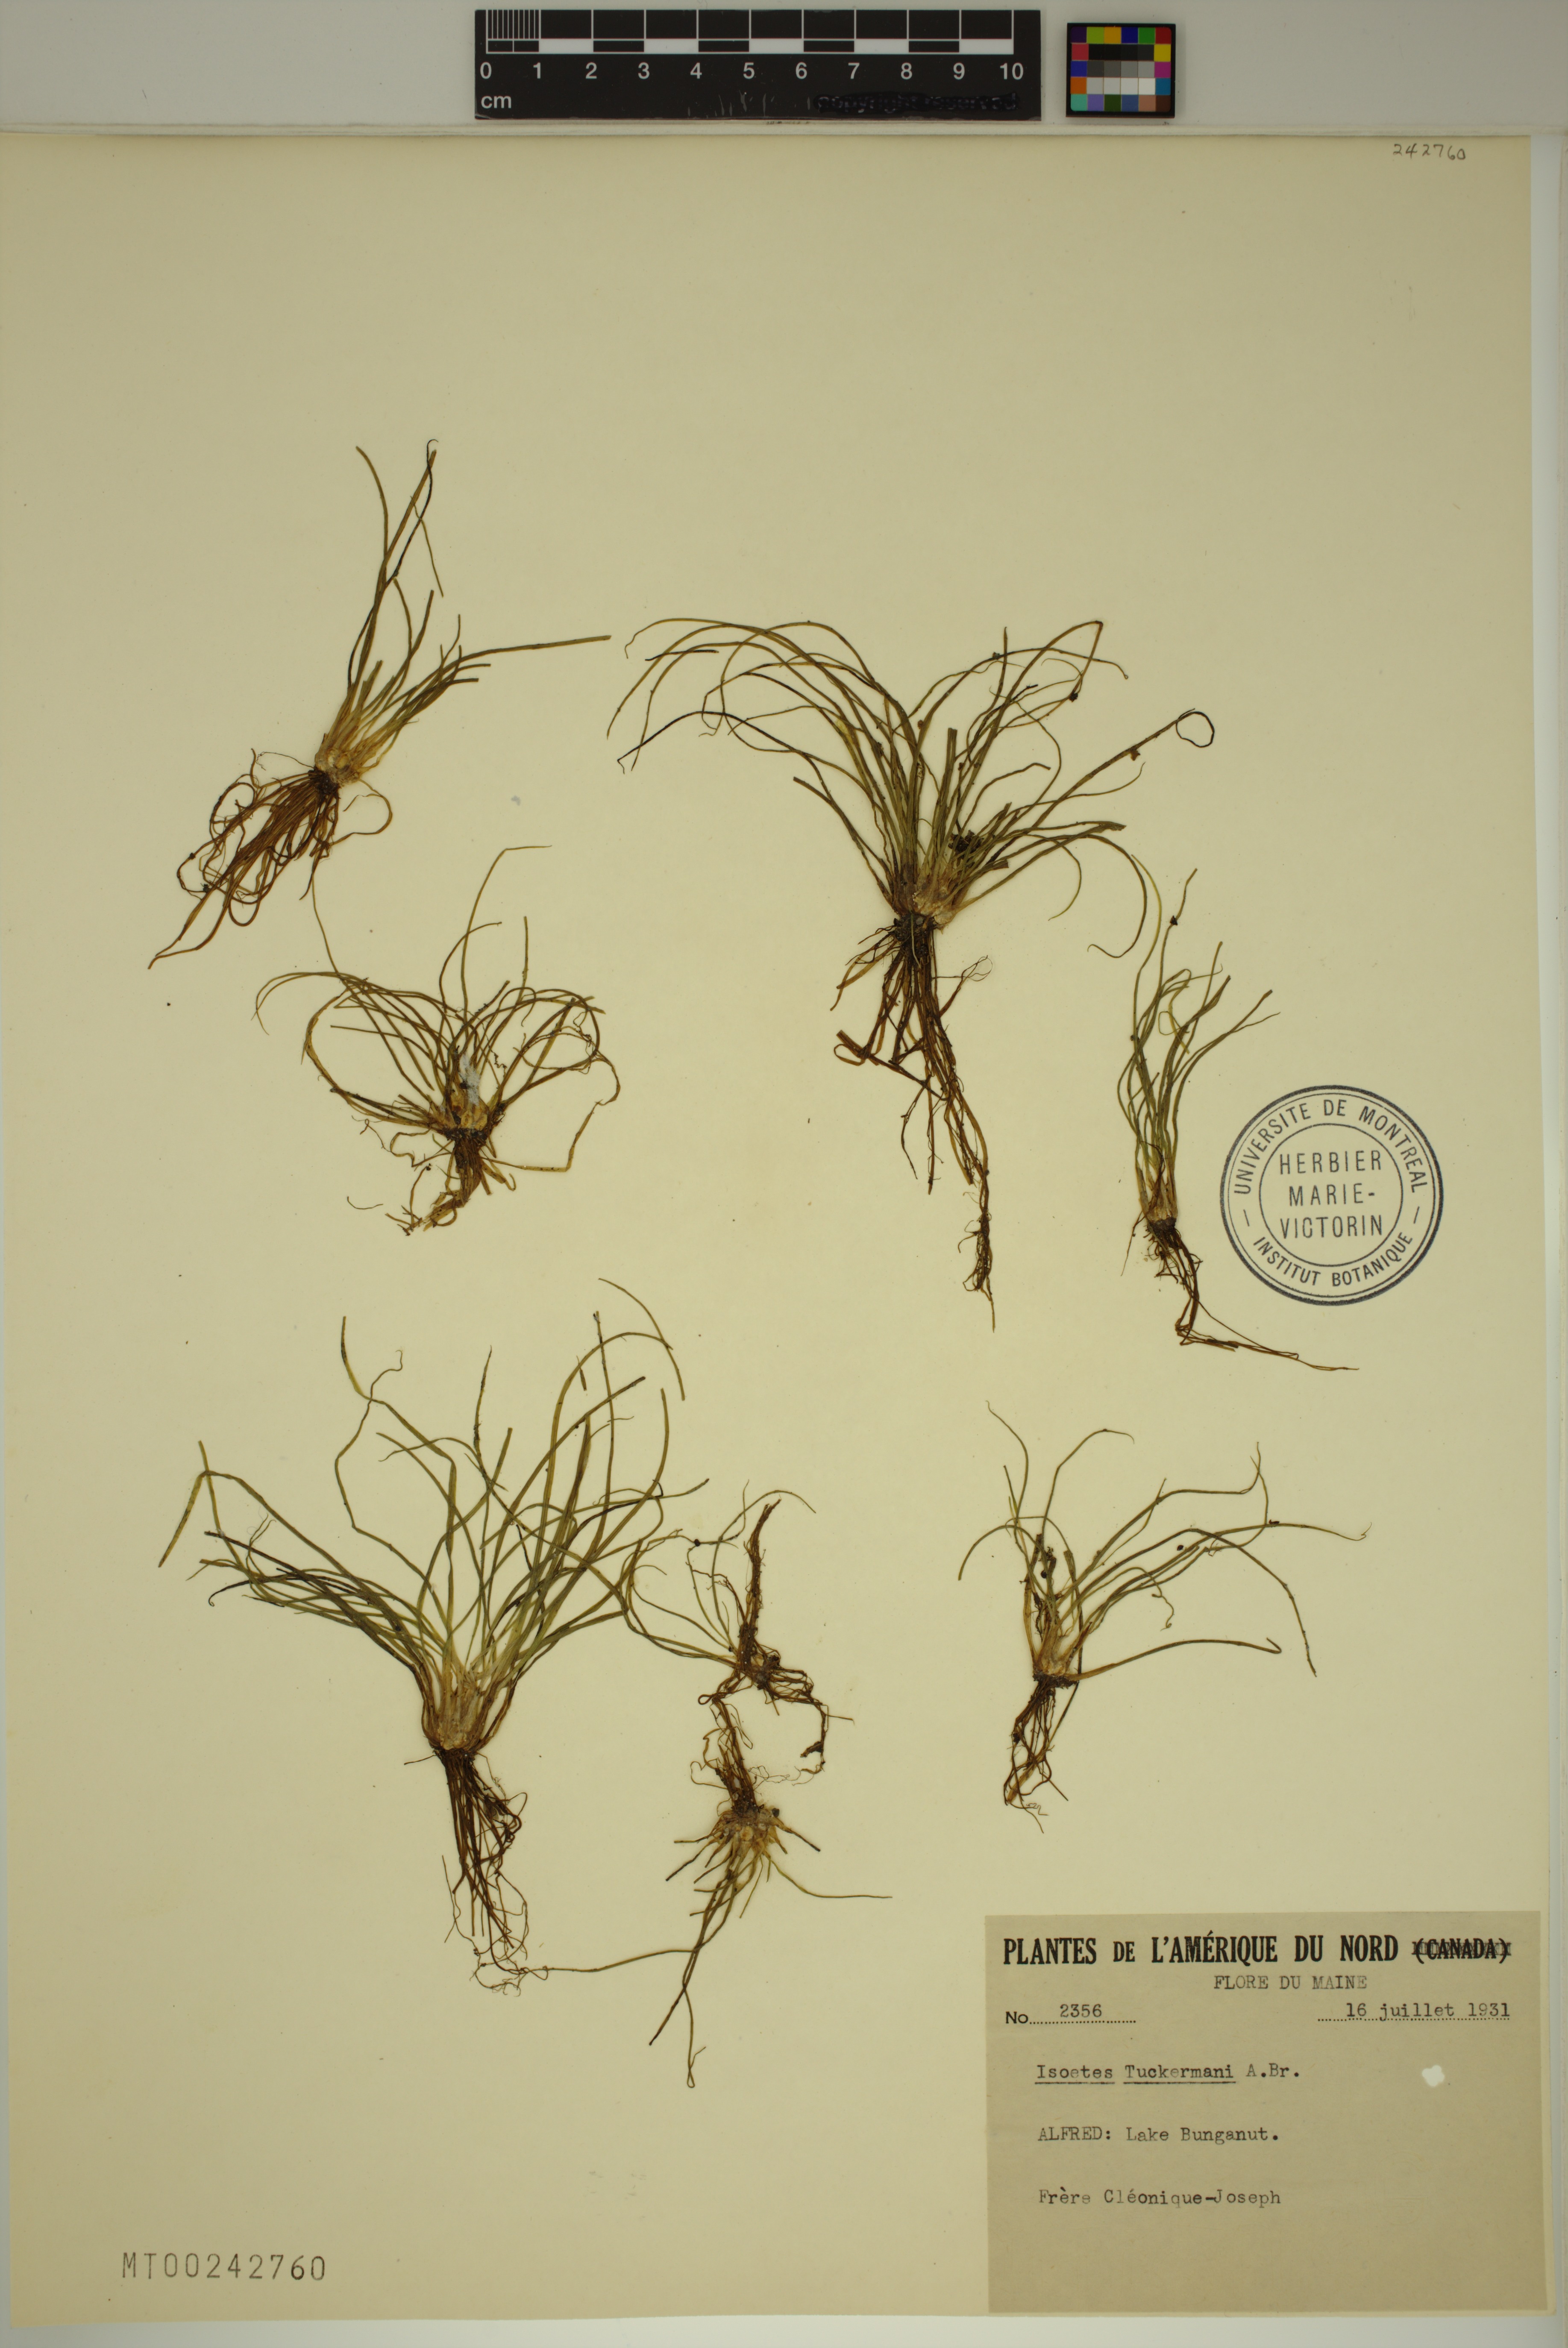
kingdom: Plantae
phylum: Tracheophyta
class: Lycopodiopsida
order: Isoetales
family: Isoetaceae
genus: Isoetes
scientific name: Isoetes tuckermanii
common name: Tuckerman's quillwort
